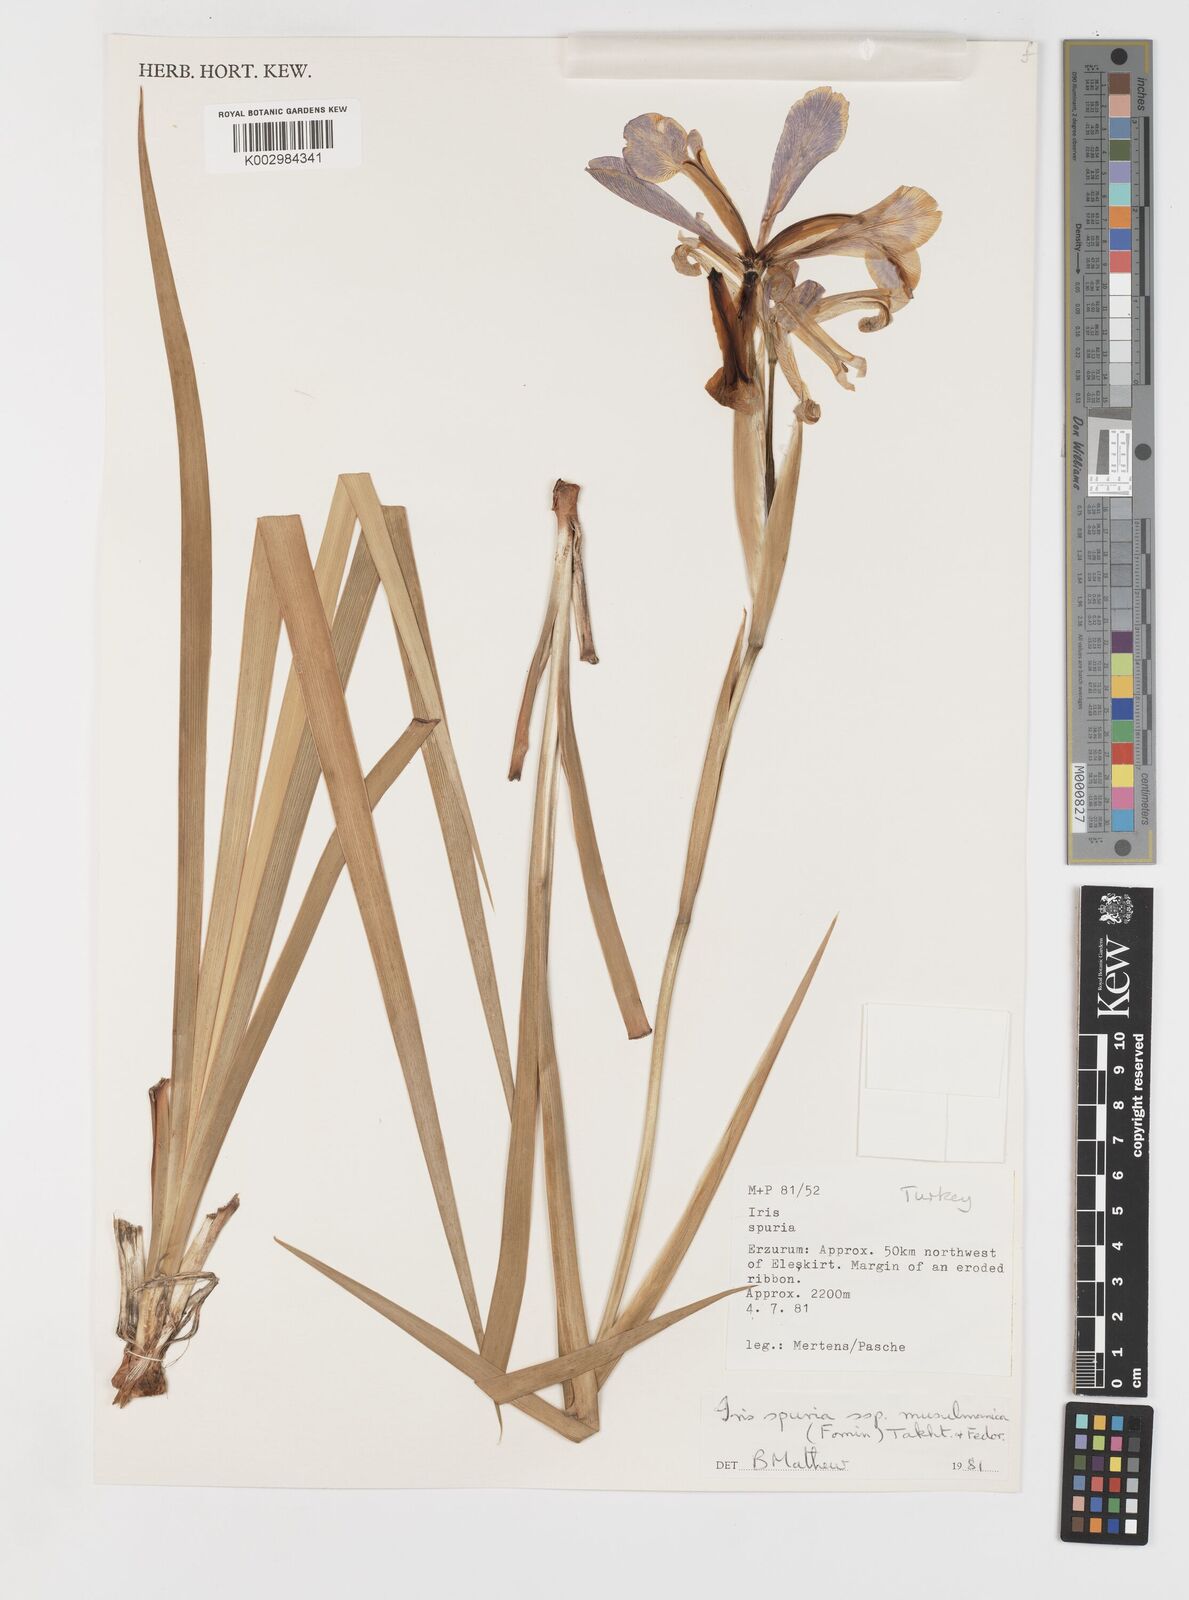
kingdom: Plantae
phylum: Tracheophyta
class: Liliopsida
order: Asparagales
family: Iridaceae
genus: Iris
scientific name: Iris spuria
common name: Blue iris
